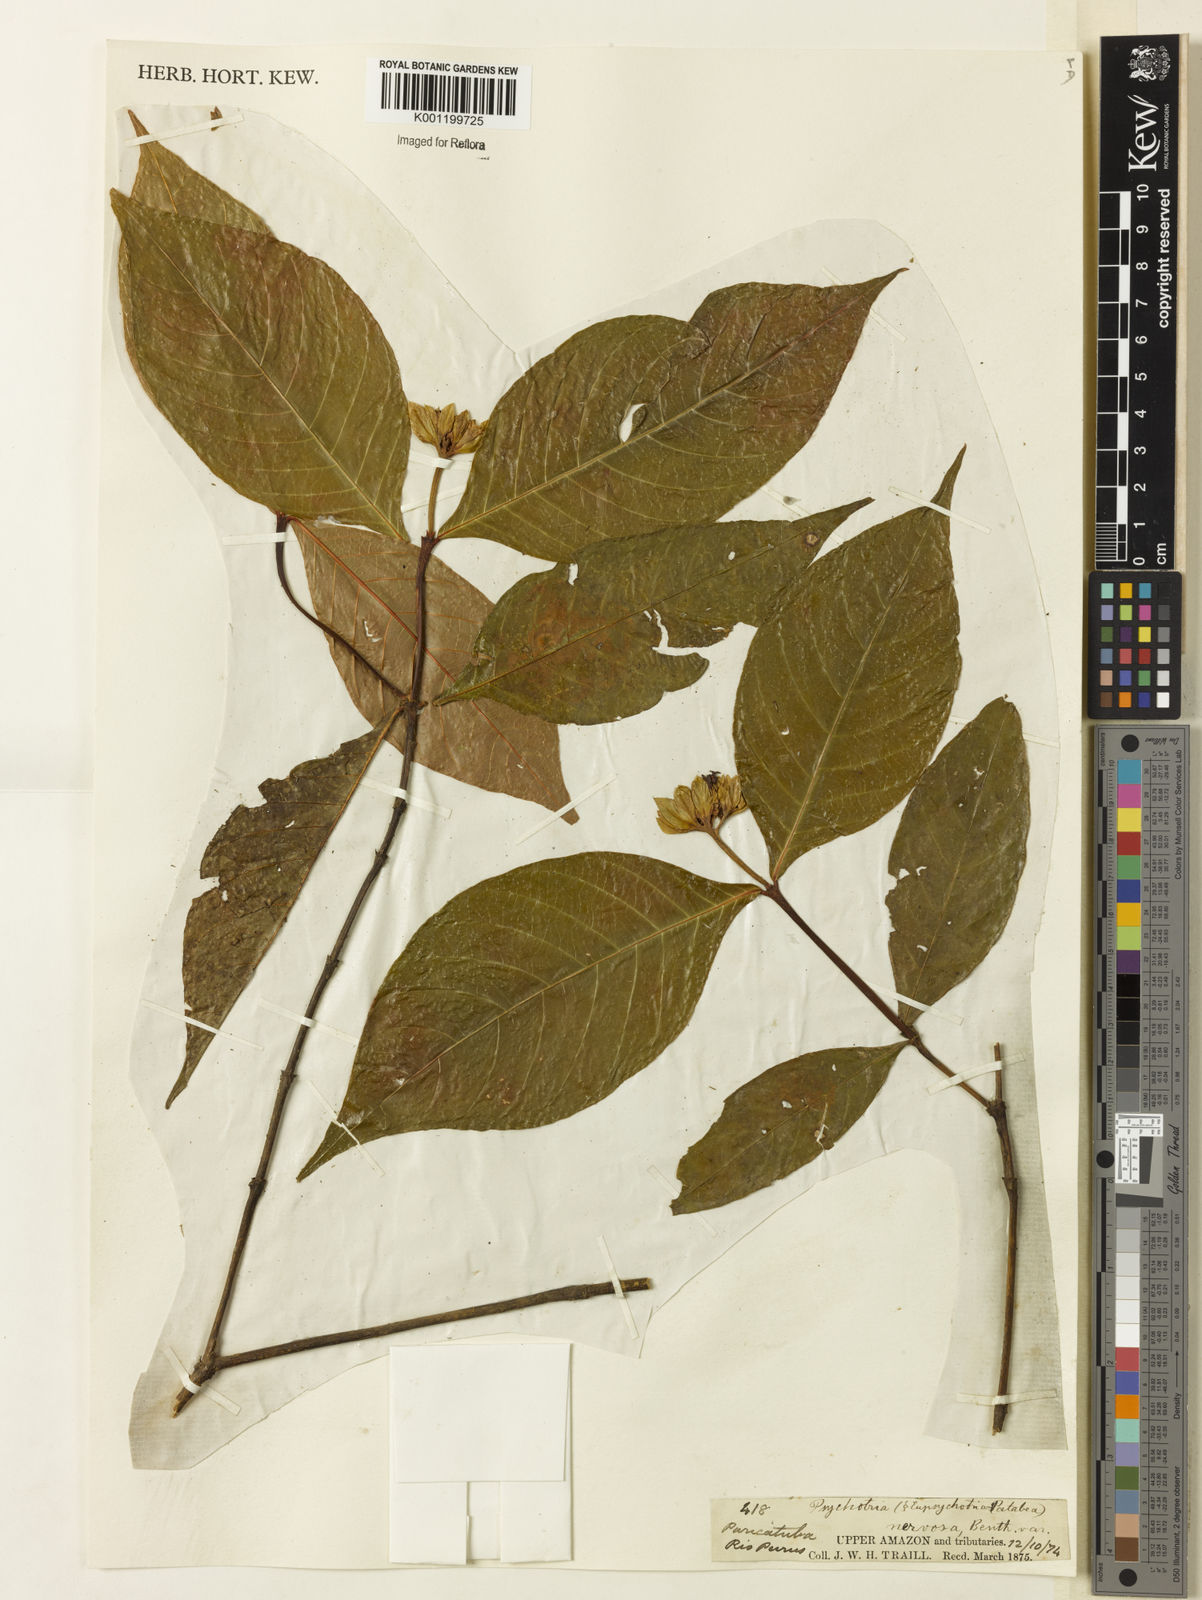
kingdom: Plantae
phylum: Tracheophyta
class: Magnoliopsida
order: Gentianales
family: Rubiaceae
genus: Psychotria
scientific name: Psychotria nervosa
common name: Bastard cankerberry
